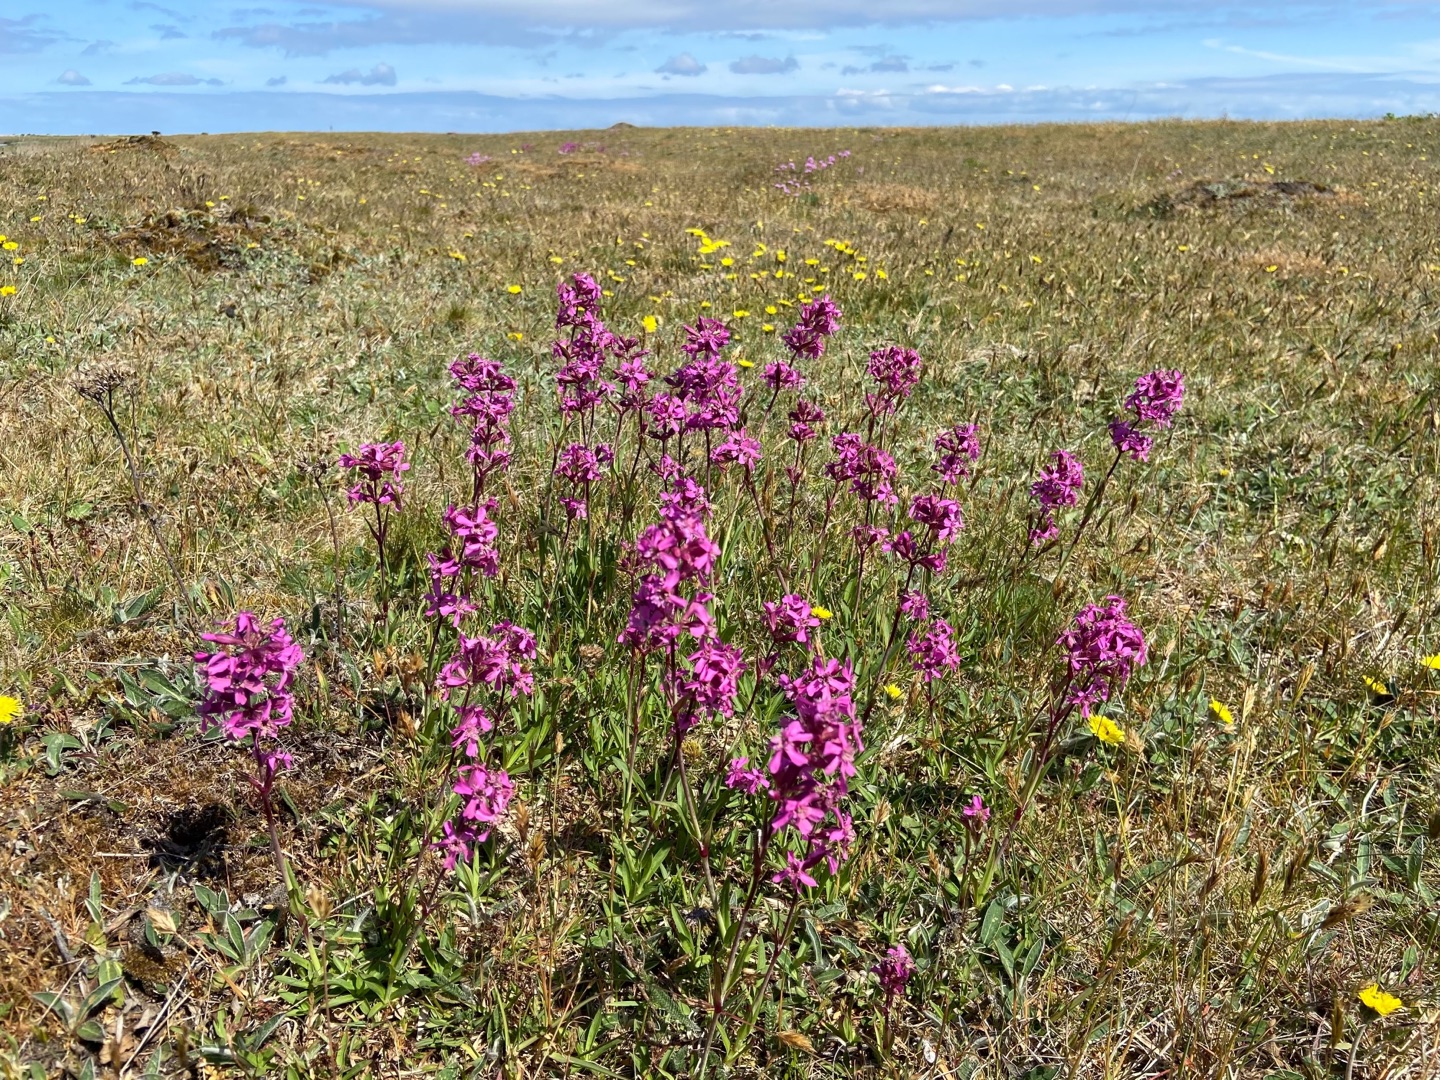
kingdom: Plantae
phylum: Tracheophyta
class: Magnoliopsida
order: Caryophyllales
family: Caryophyllaceae
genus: Viscaria
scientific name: Viscaria vulgaris
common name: Tjærenellike
